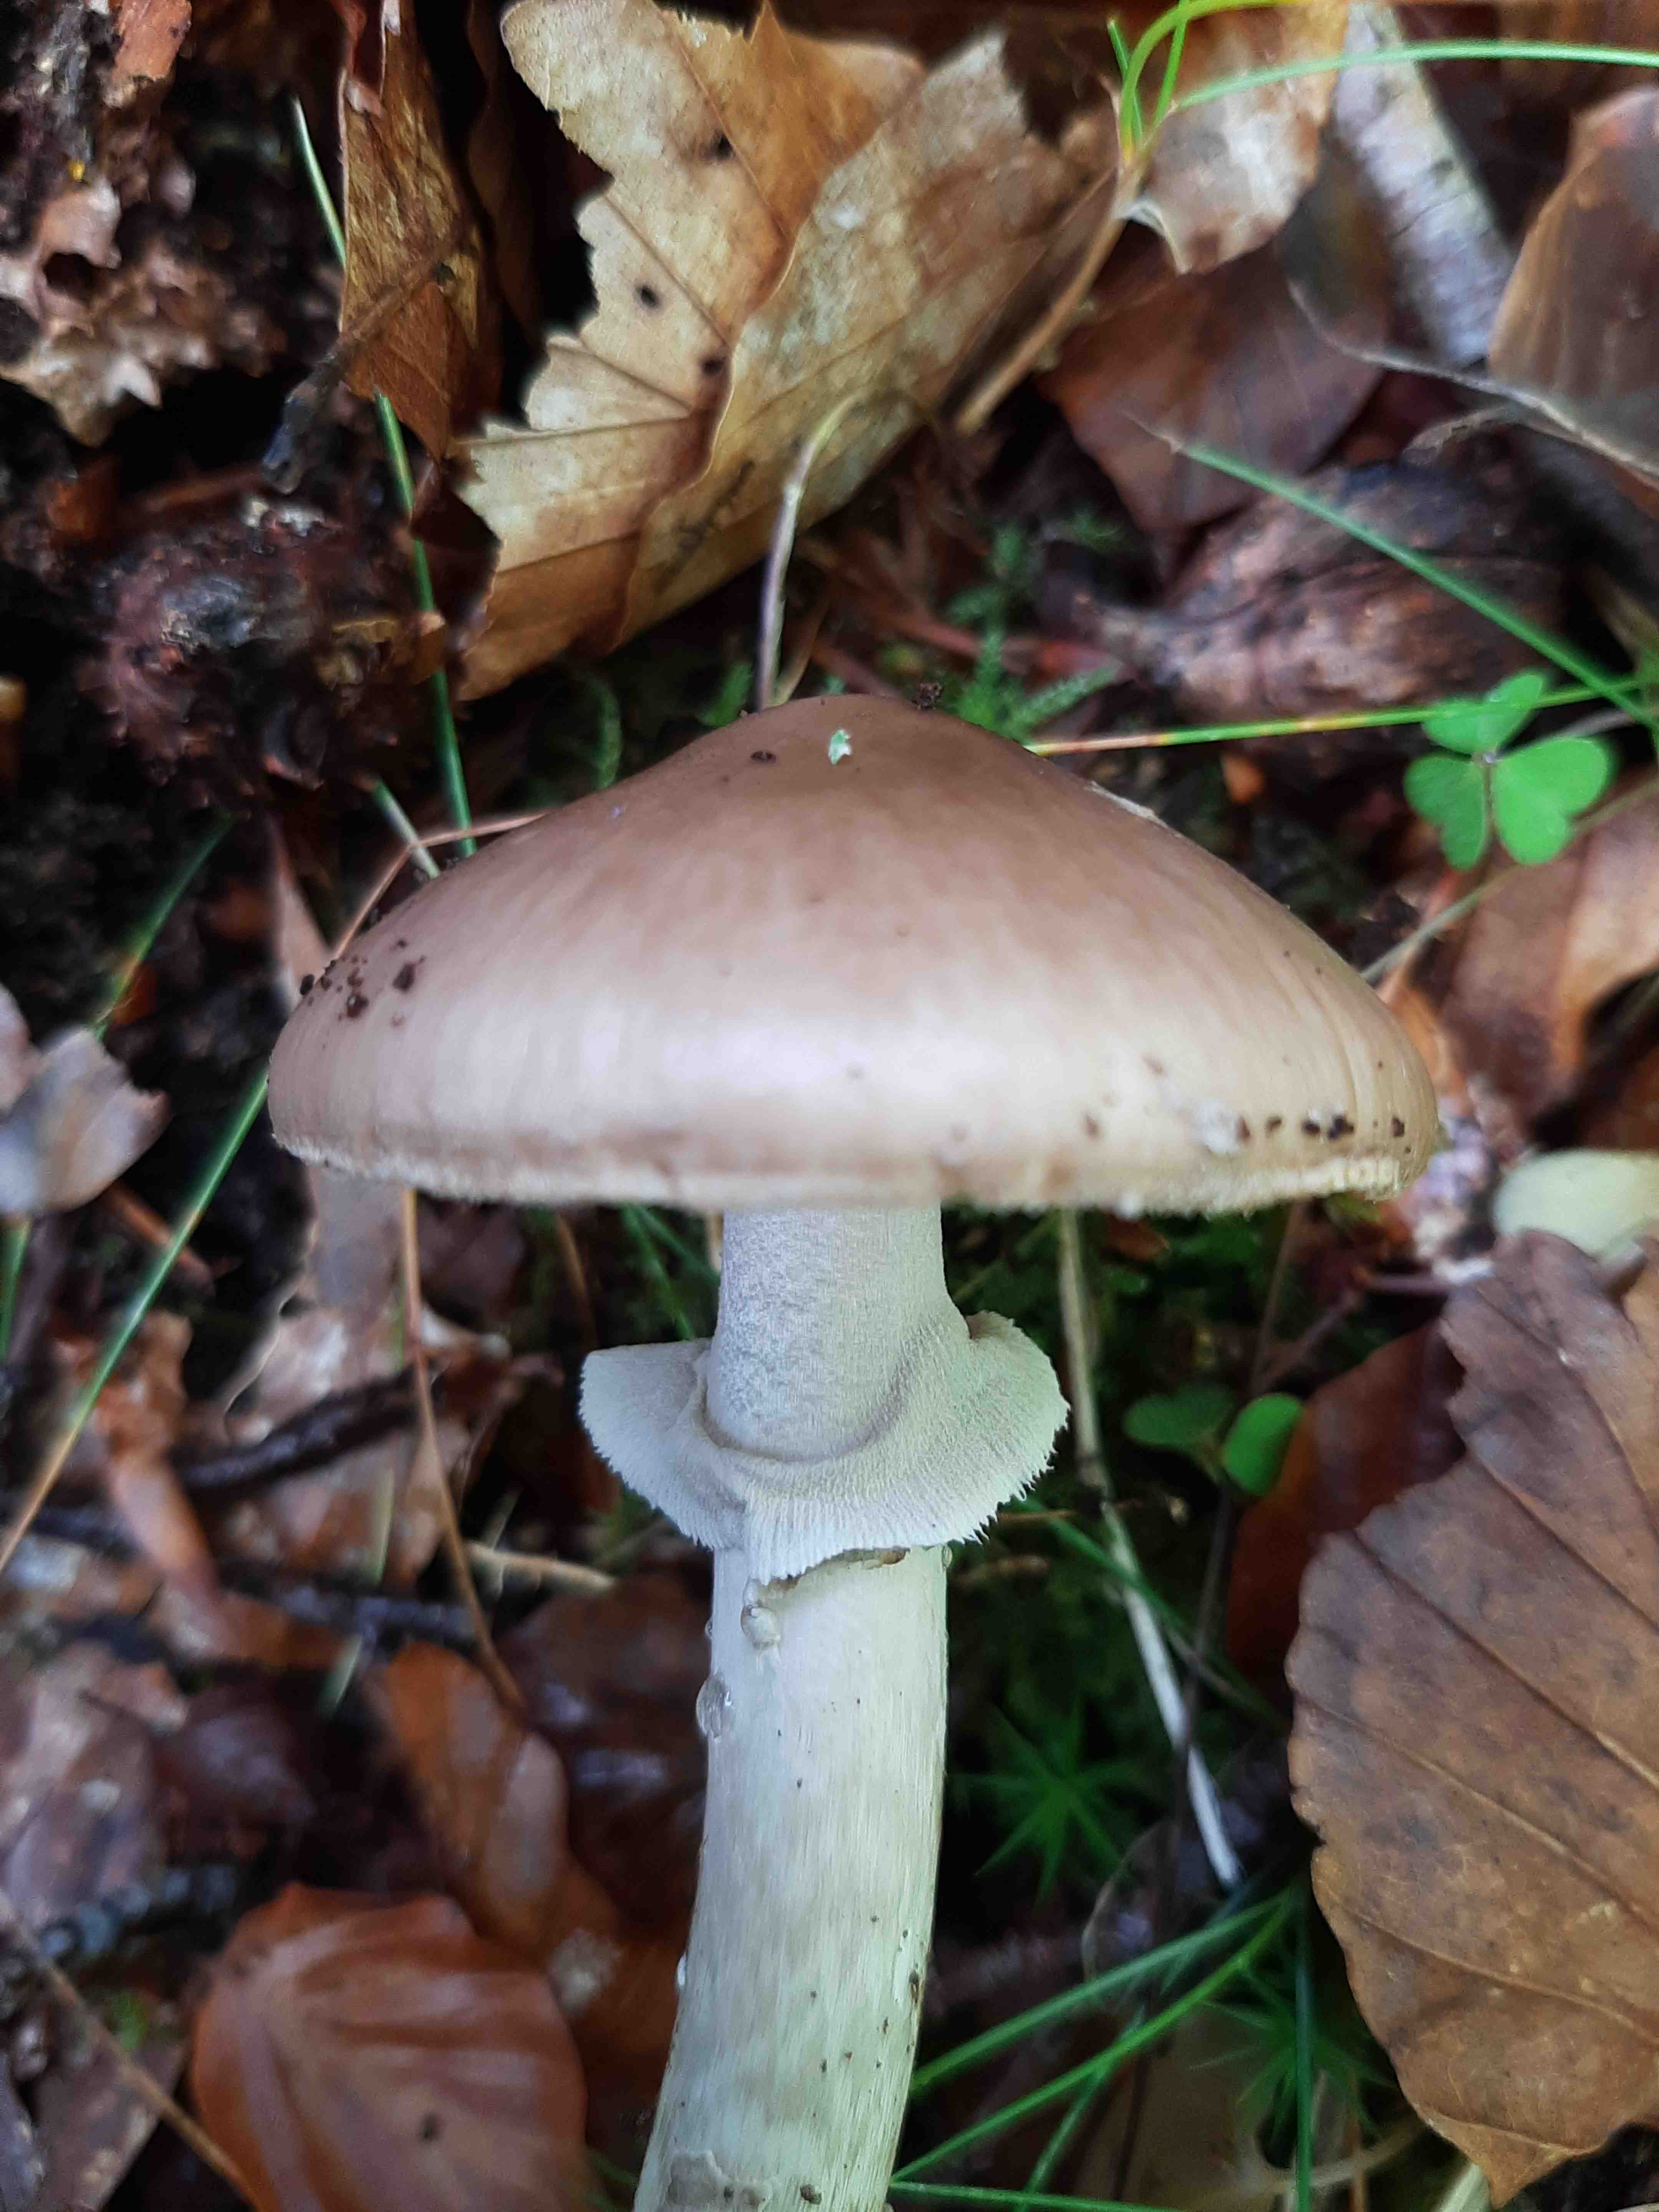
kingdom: Fungi
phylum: Basidiomycota
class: Agaricomycetes
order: Agaricales
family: Amanitaceae
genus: Amanita
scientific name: Amanita porphyria
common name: porfyr-fluesvamp
